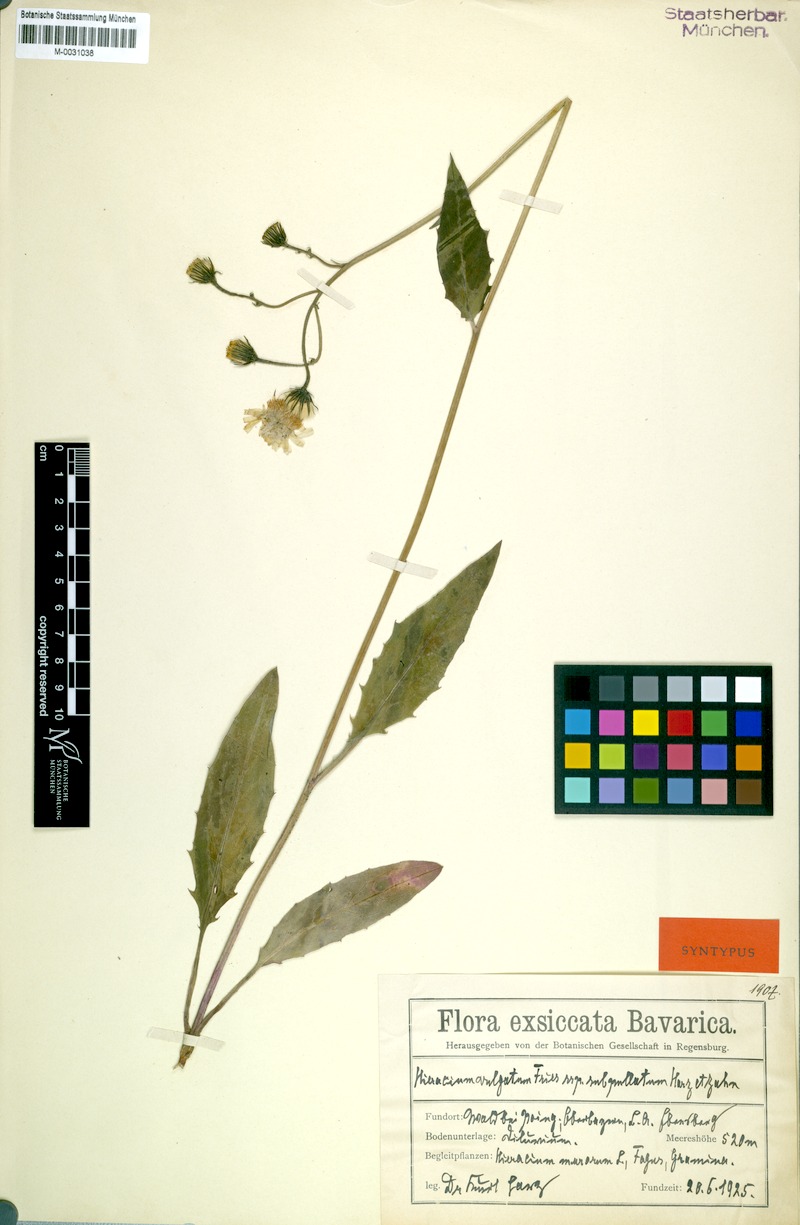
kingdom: Plantae
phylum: Tracheophyta
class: Magnoliopsida
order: Asterales
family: Asteraceae
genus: Hieracium
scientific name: Hieracium lachenalii
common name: Common hawkweed
